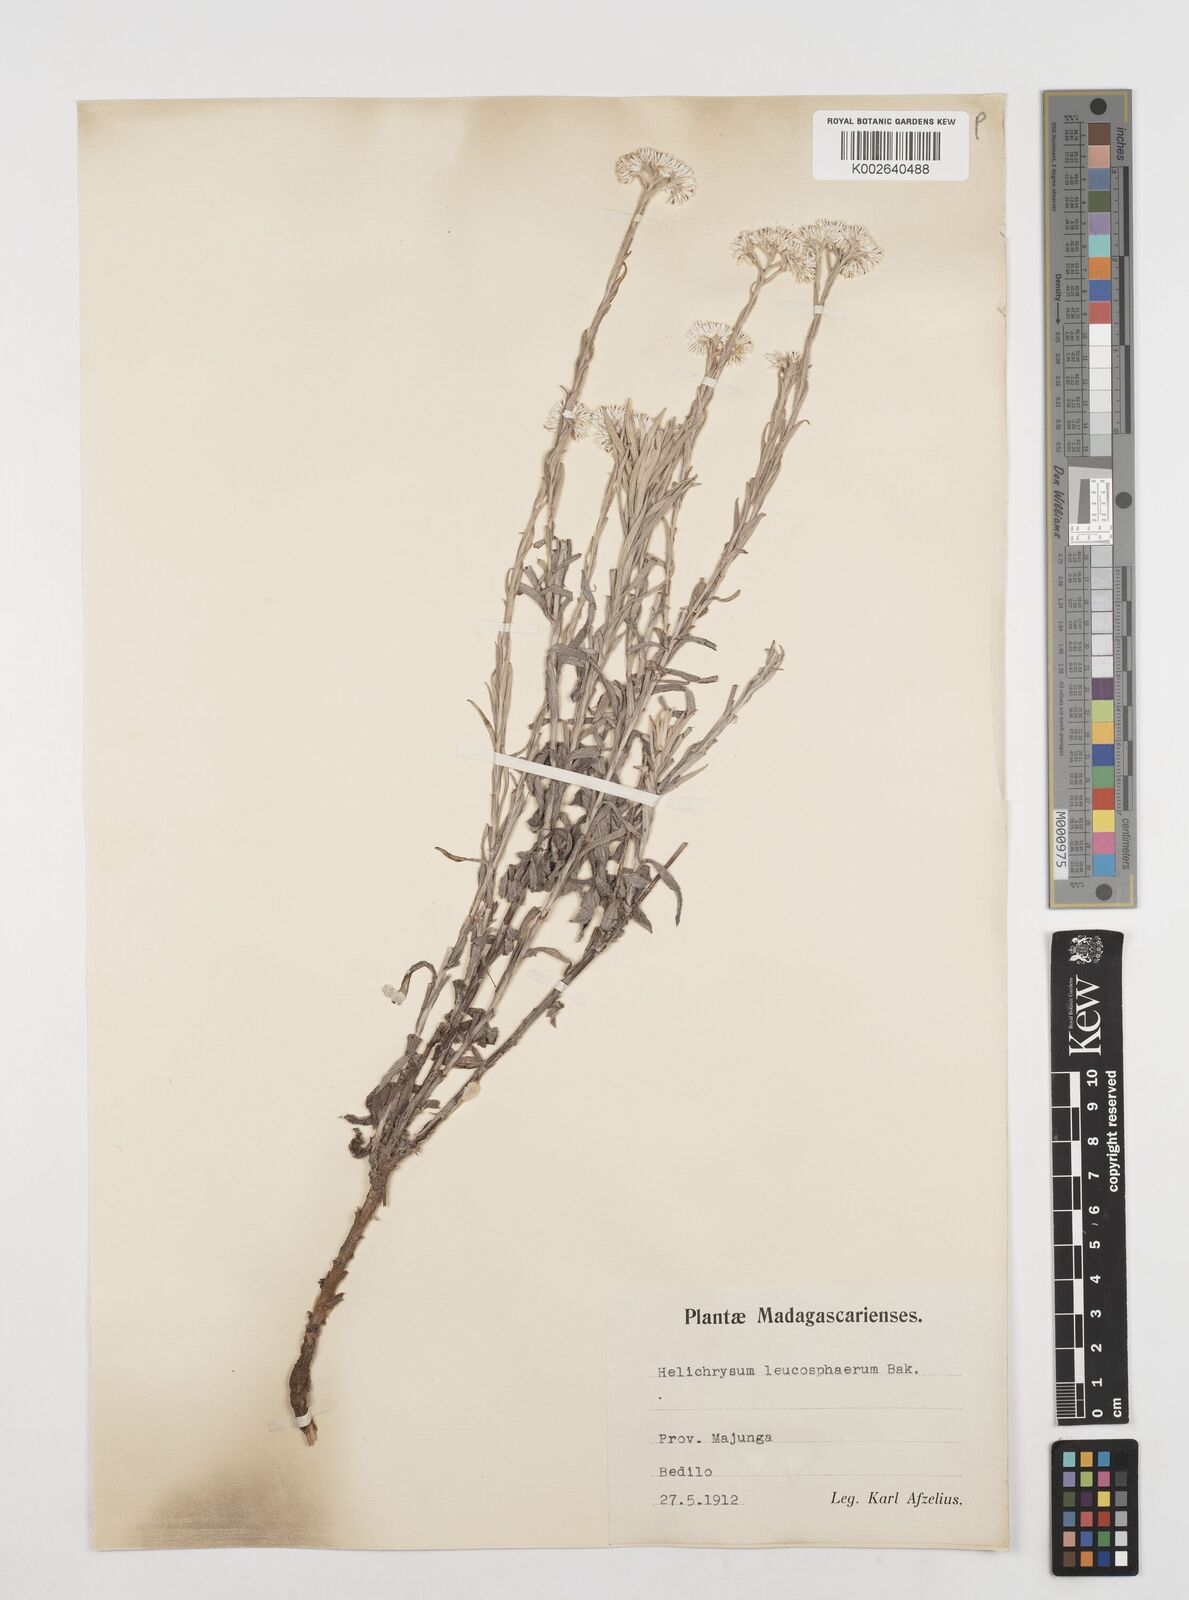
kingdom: Plantae
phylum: Tracheophyta
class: Magnoliopsida
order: Asterales
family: Asteraceae
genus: Helichrysum
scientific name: Helichrysum leucosphaerum
